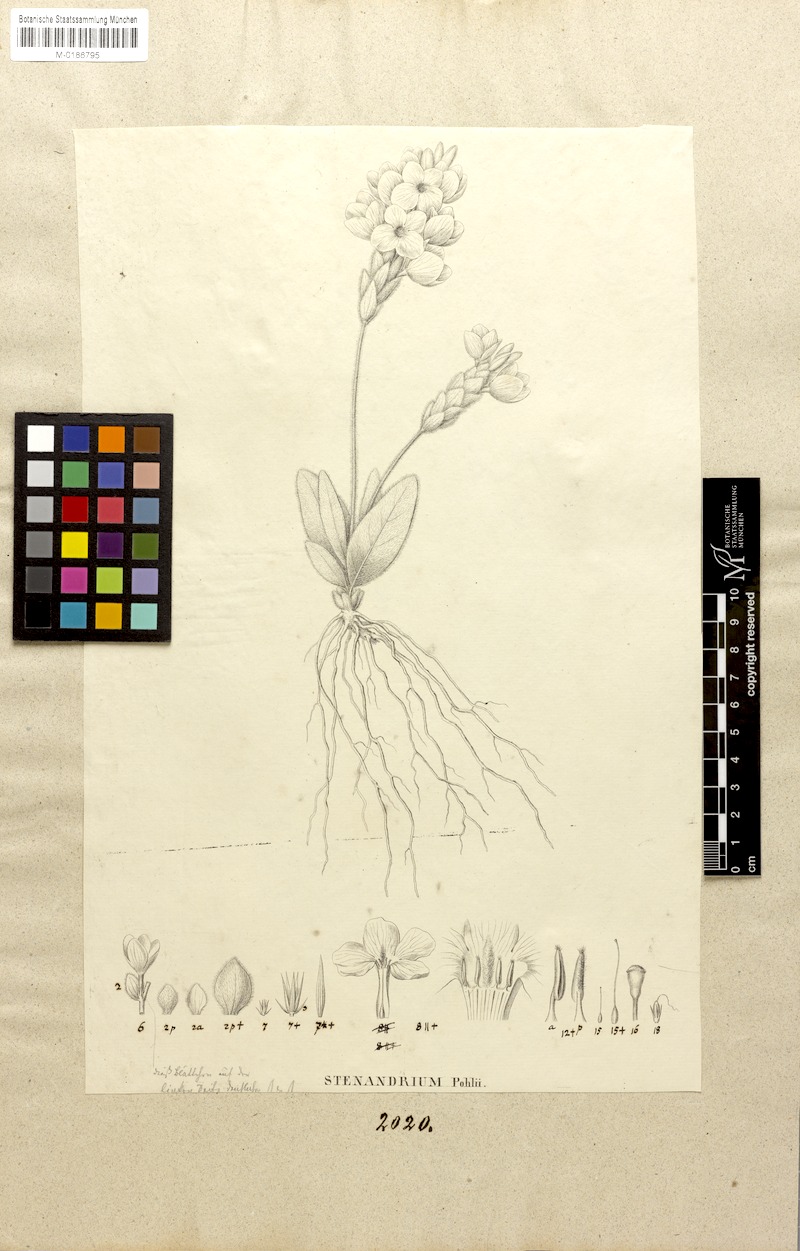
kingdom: Plantae
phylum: Tracheophyta
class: Magnoliopsida
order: Lamiales
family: Acanthaceae
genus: Stenandrium
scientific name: Stenandrium pohlii
